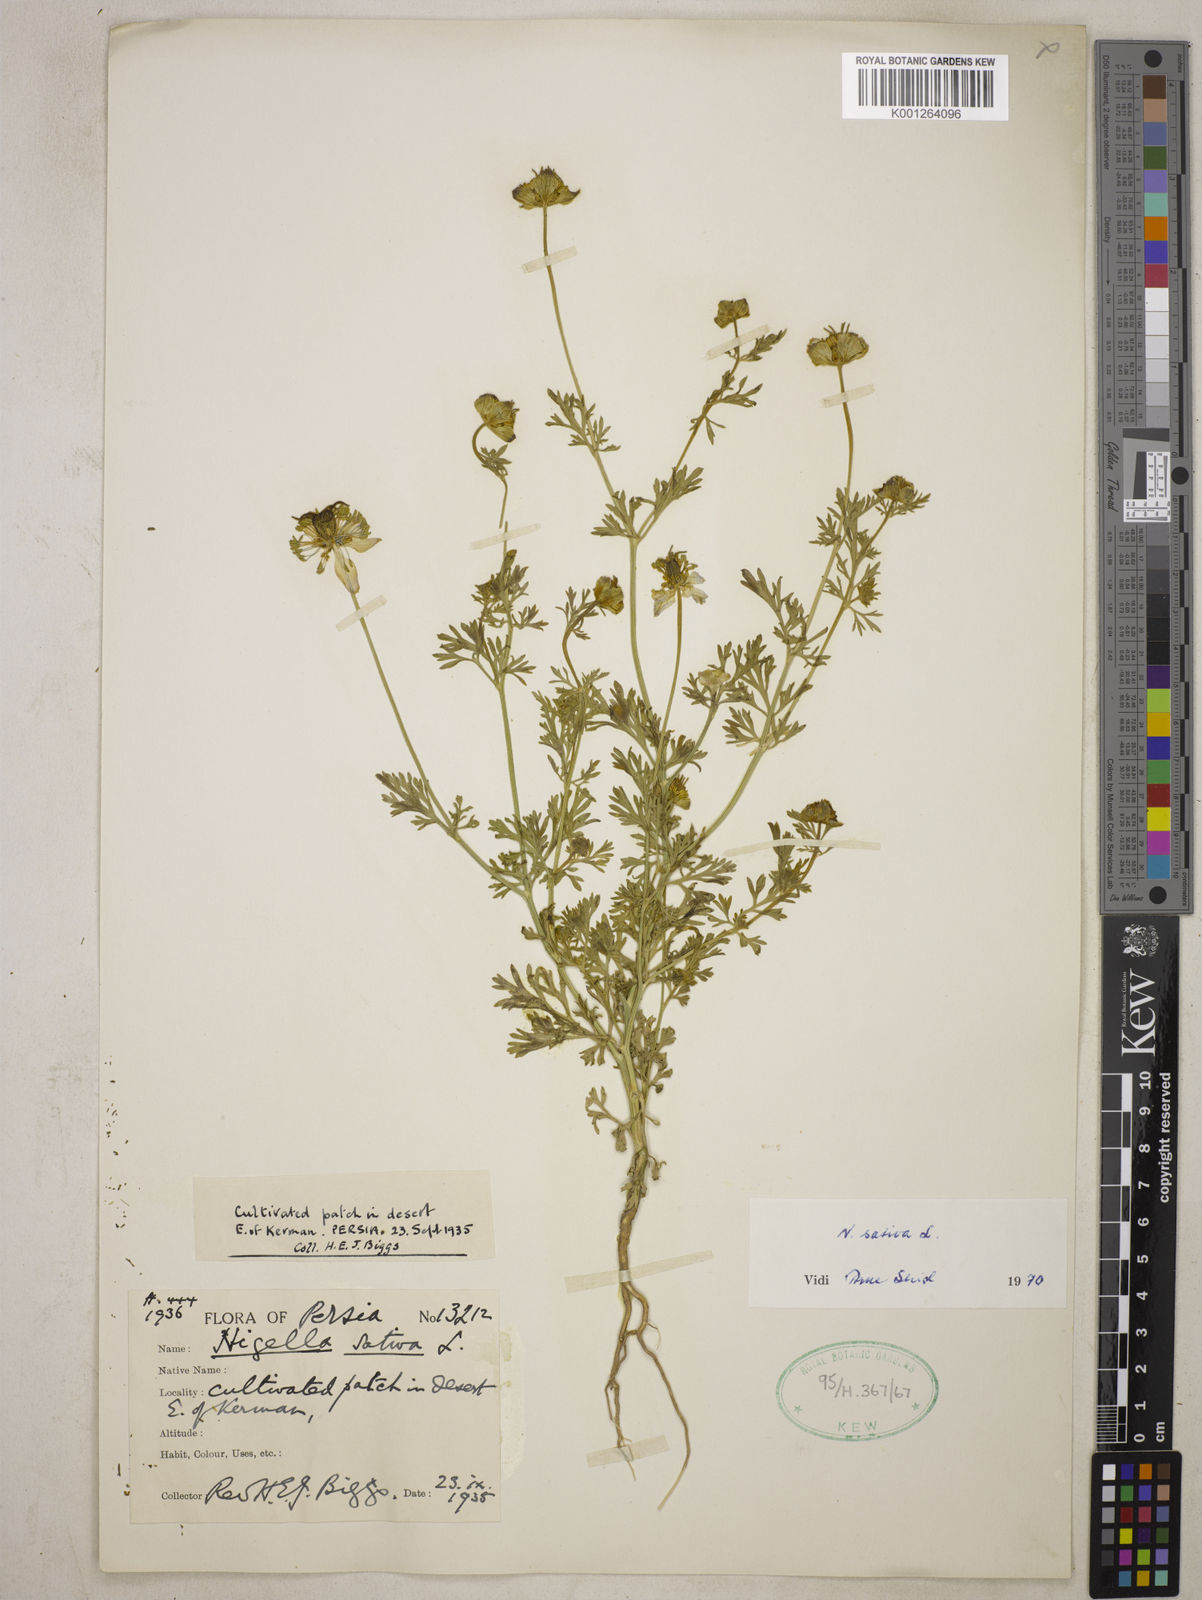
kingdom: Plantae
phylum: Tracheophyta
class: Magnoliopsida
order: Ranunculales
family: Ranunculaceae
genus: Nigella
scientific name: Nigella sativa
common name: Black-cumin
